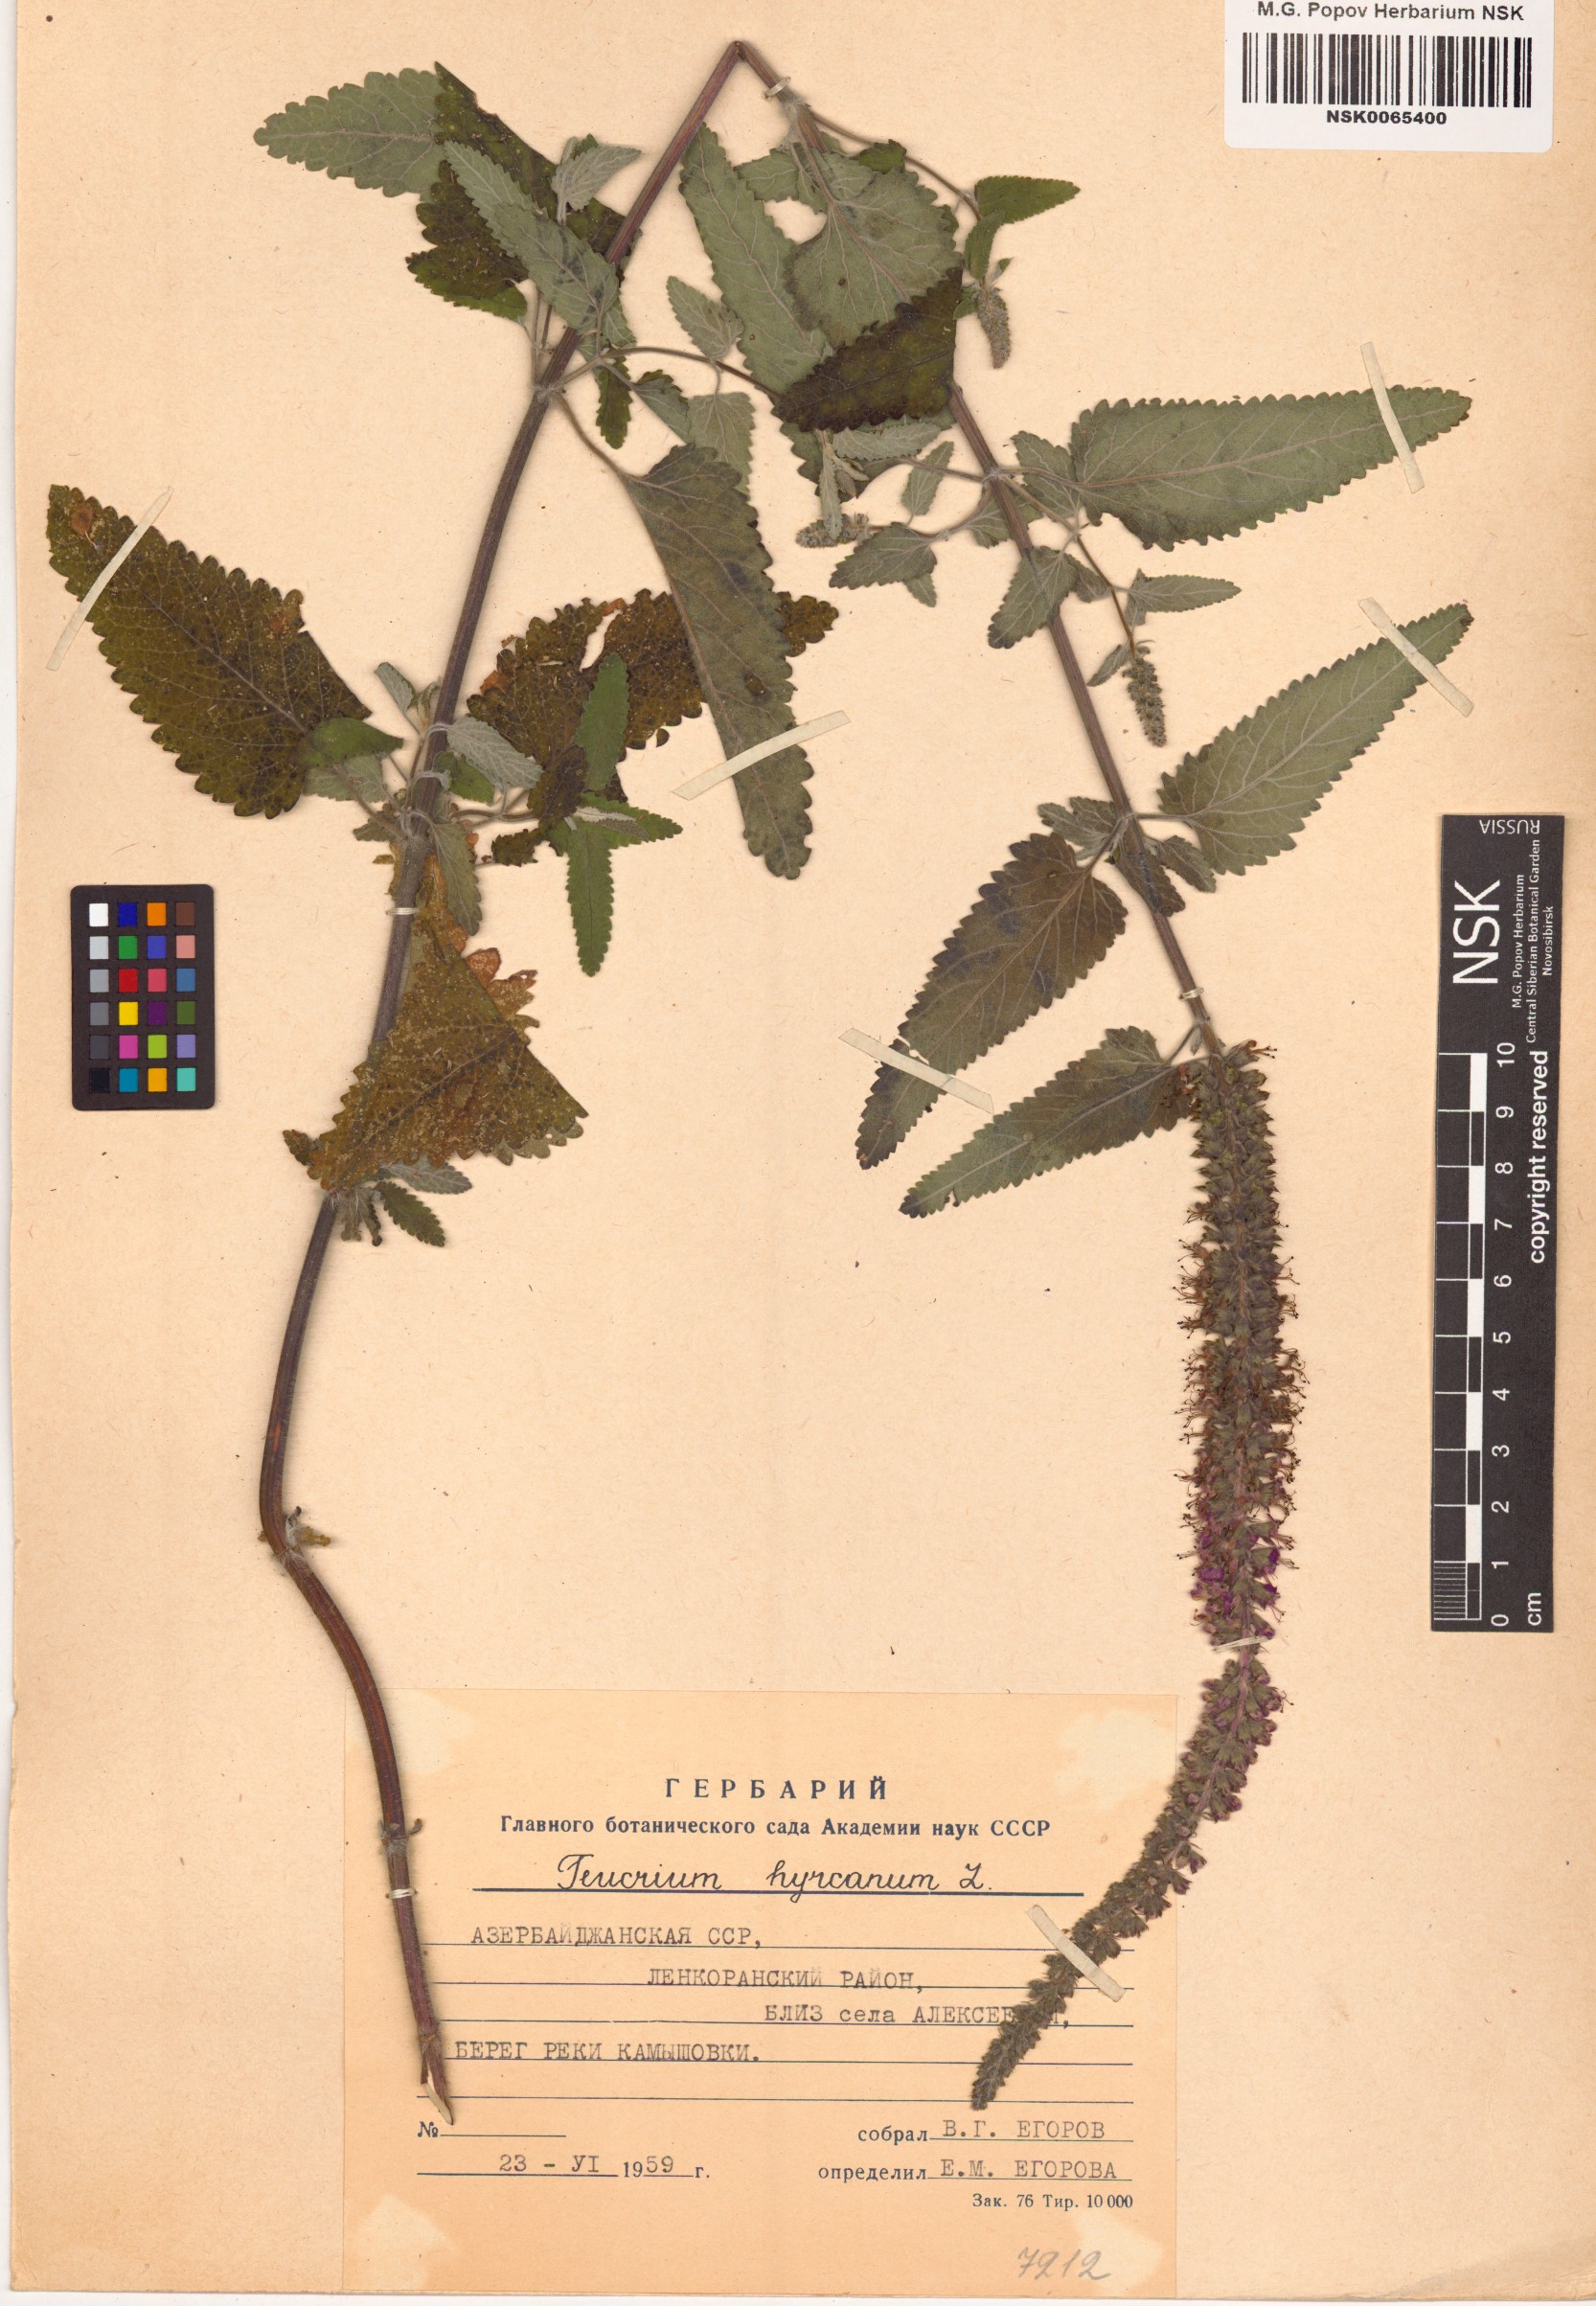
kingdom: Plantae
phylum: Tracheophyta
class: Magnoliopsida
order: Lamiales
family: Lamiaceae
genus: Teucrium
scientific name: Teucrium hircanicum
